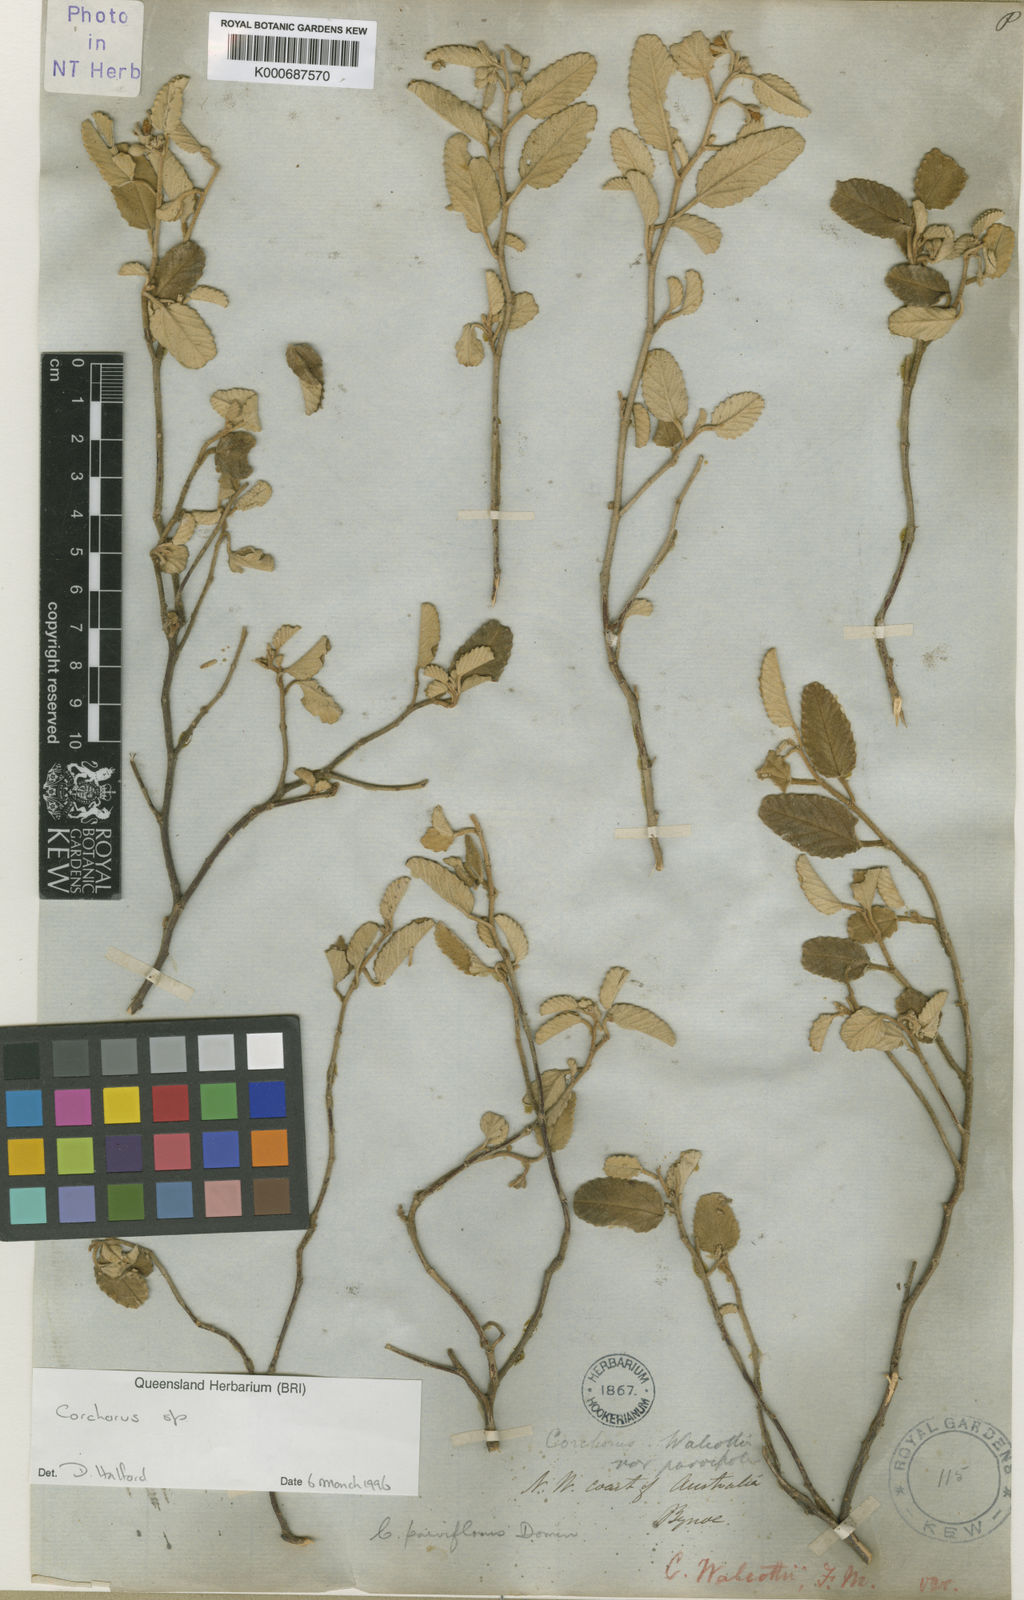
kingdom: Plantae
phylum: Tracheophyta
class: Magnoliopsida
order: Malvales
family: Malvaceae
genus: Corchorus
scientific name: Corchorus parviflorus
